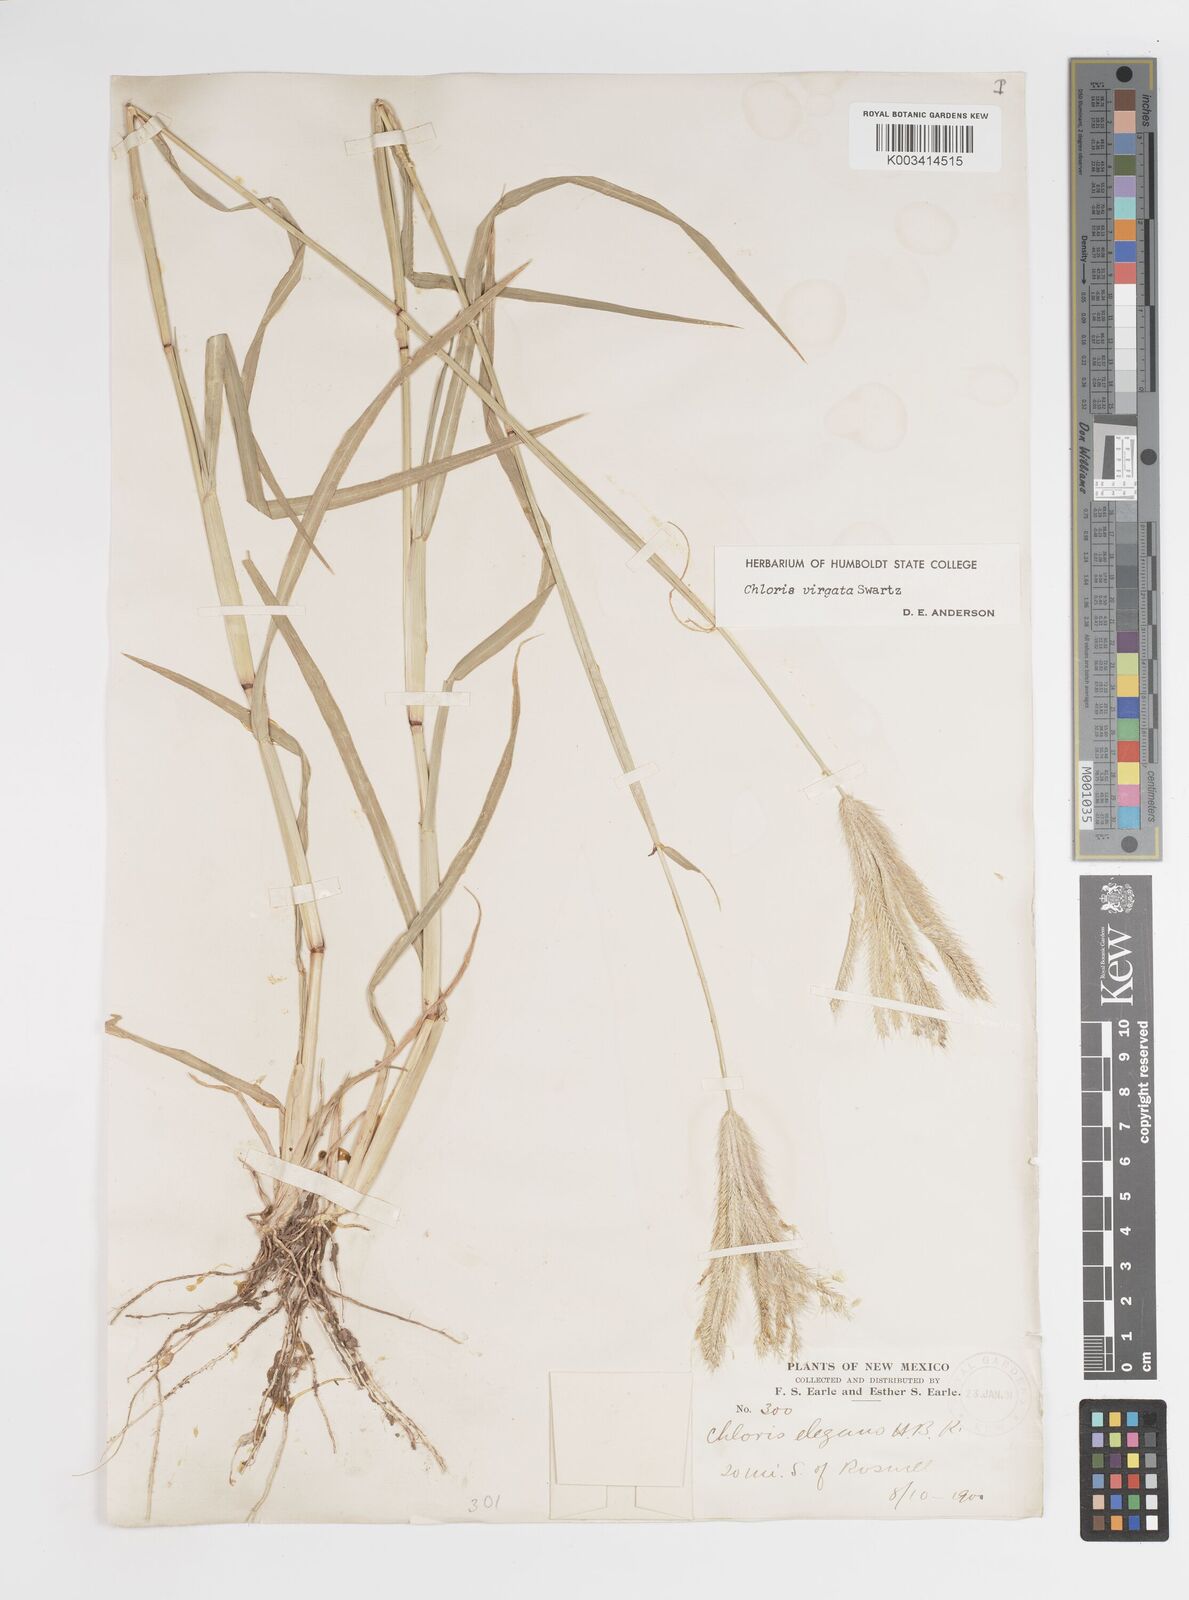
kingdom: Plantae
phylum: Tracheophyta
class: Liliopsida
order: Poales
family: Poaceae
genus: Chloris
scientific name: Chloris virgata
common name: Feathery rhodes-grass
